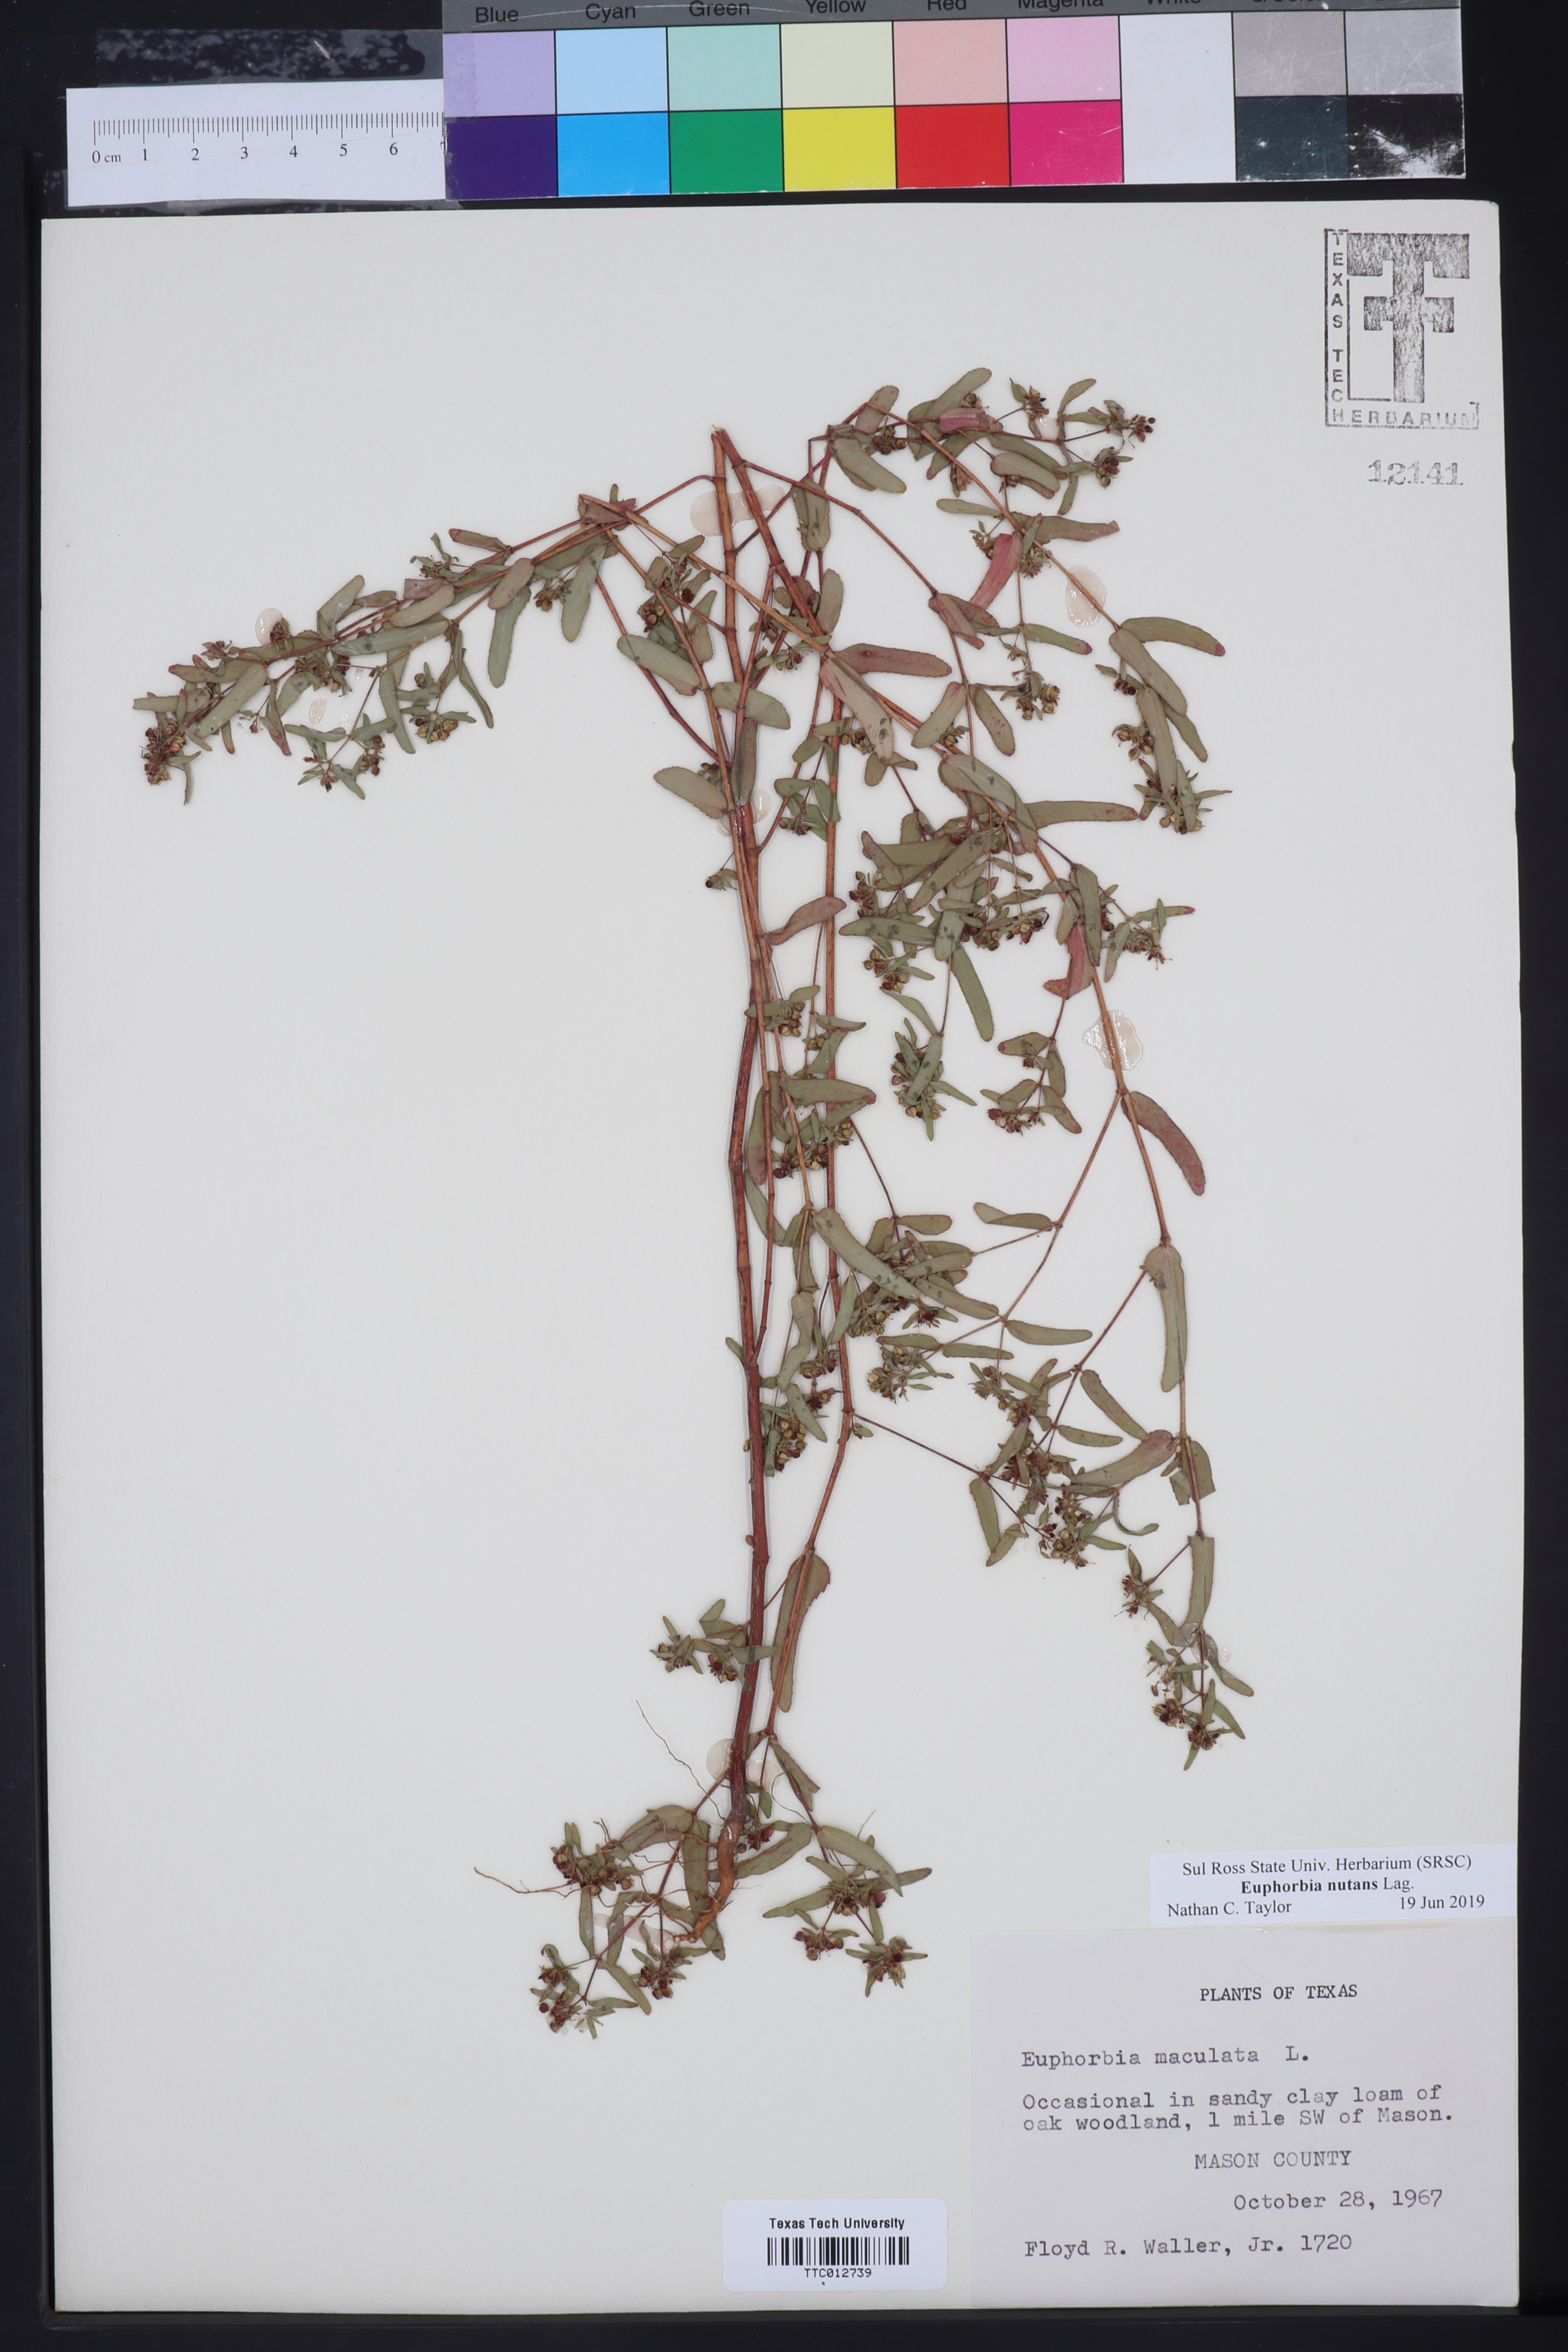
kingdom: Plantae
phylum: Tracheophyta
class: Magnoliopsida
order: Malpighiales
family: Euphorbiaceae
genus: Euphorbia
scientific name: Euphorbia nutans
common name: Eyebane
